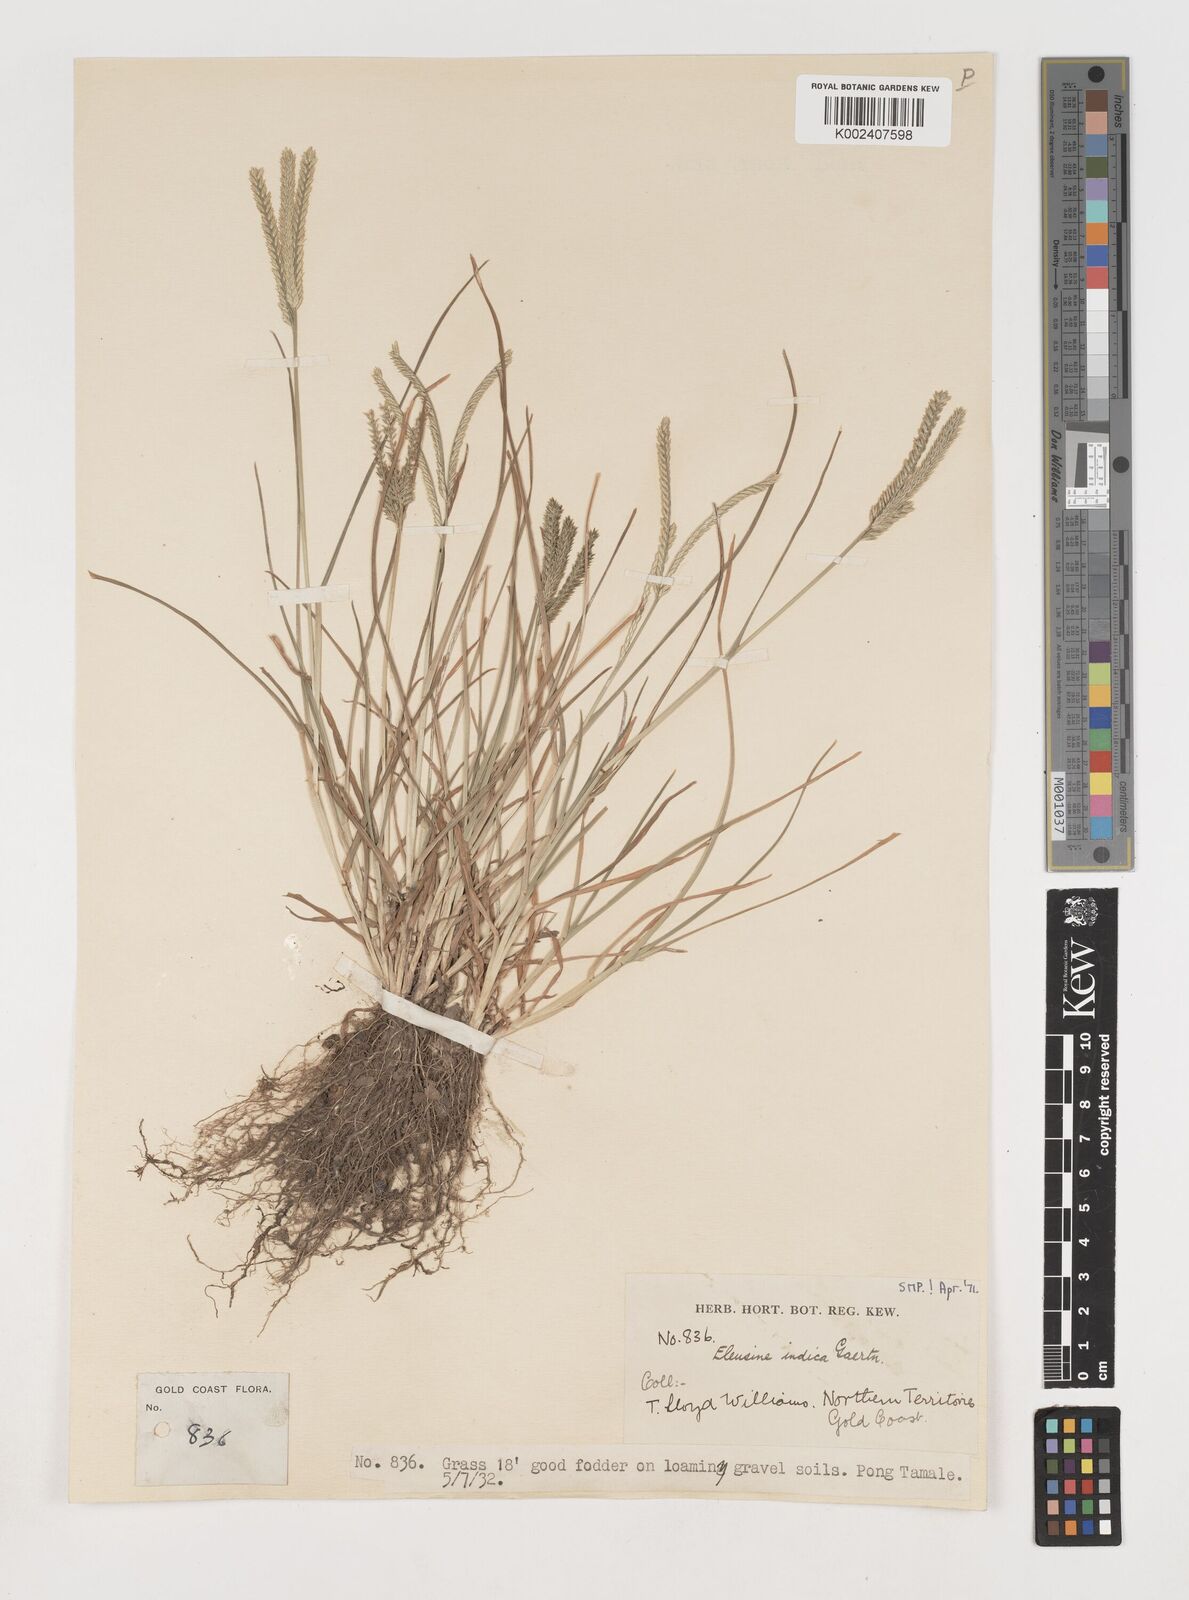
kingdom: Plantae
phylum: Tracheophyta
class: Liliopsida
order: Poales
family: Poaceae
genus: Eleusine
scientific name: Eleusine indica
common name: Yard-grass
